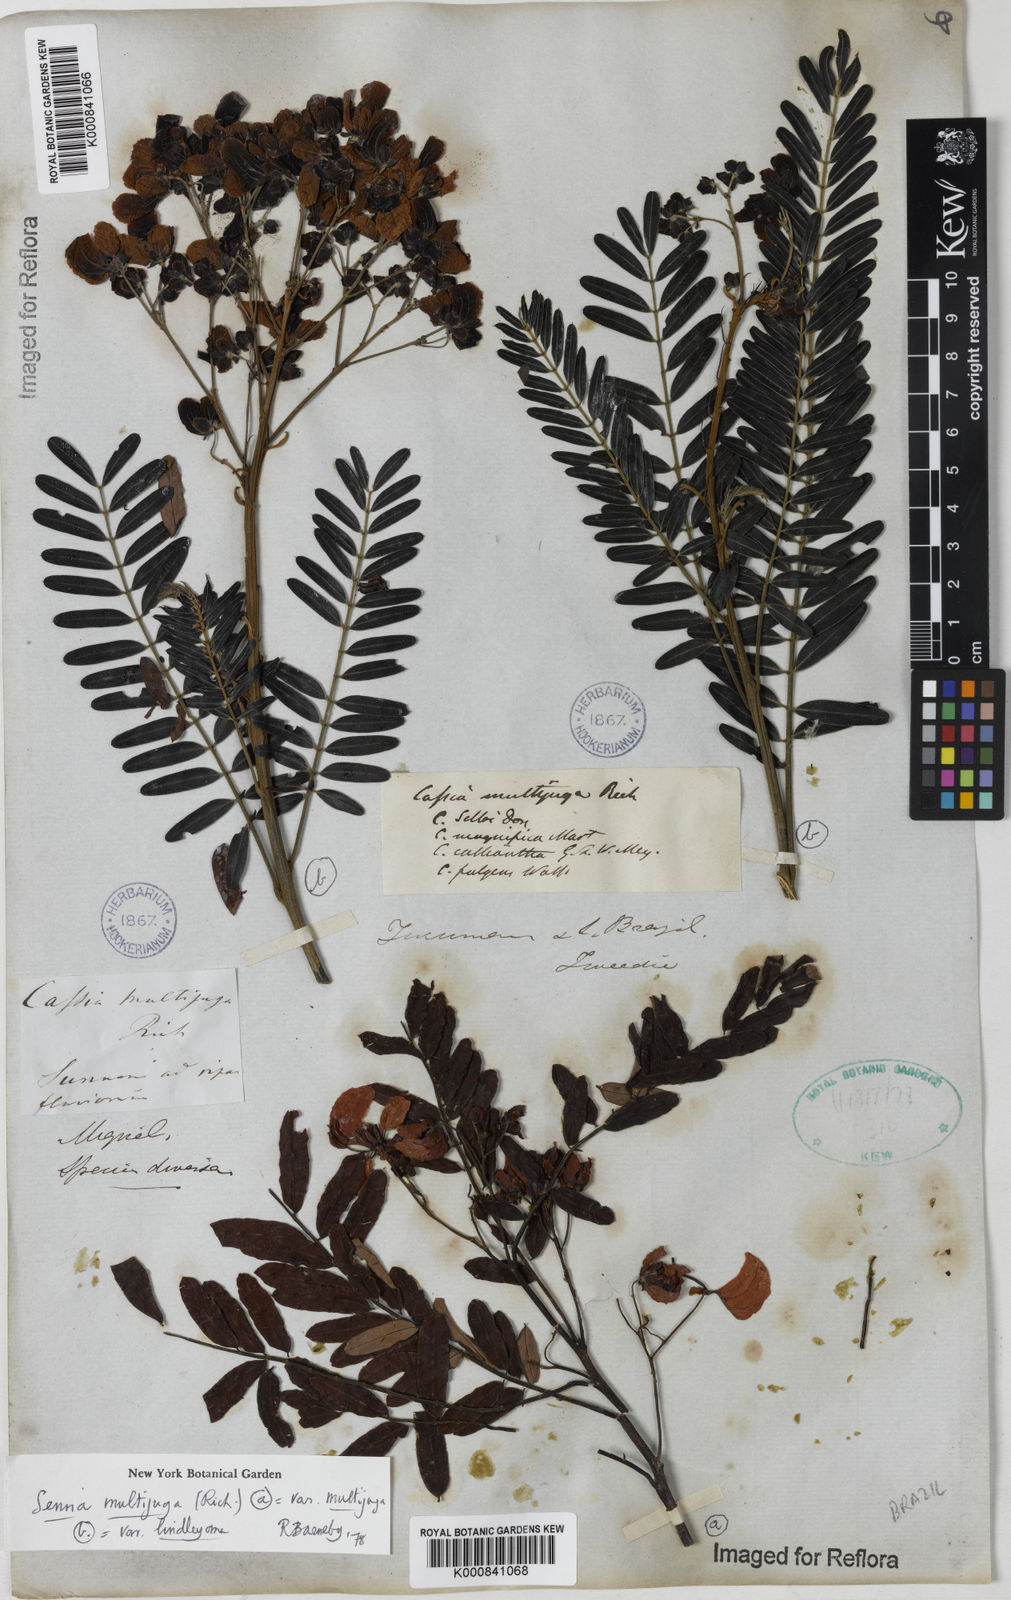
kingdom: Plantae
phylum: Tracheophyta
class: Magnoliopsida
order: Fabales
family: Fabaceae
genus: Senna
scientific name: Senna multijuga
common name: False sicklepod
